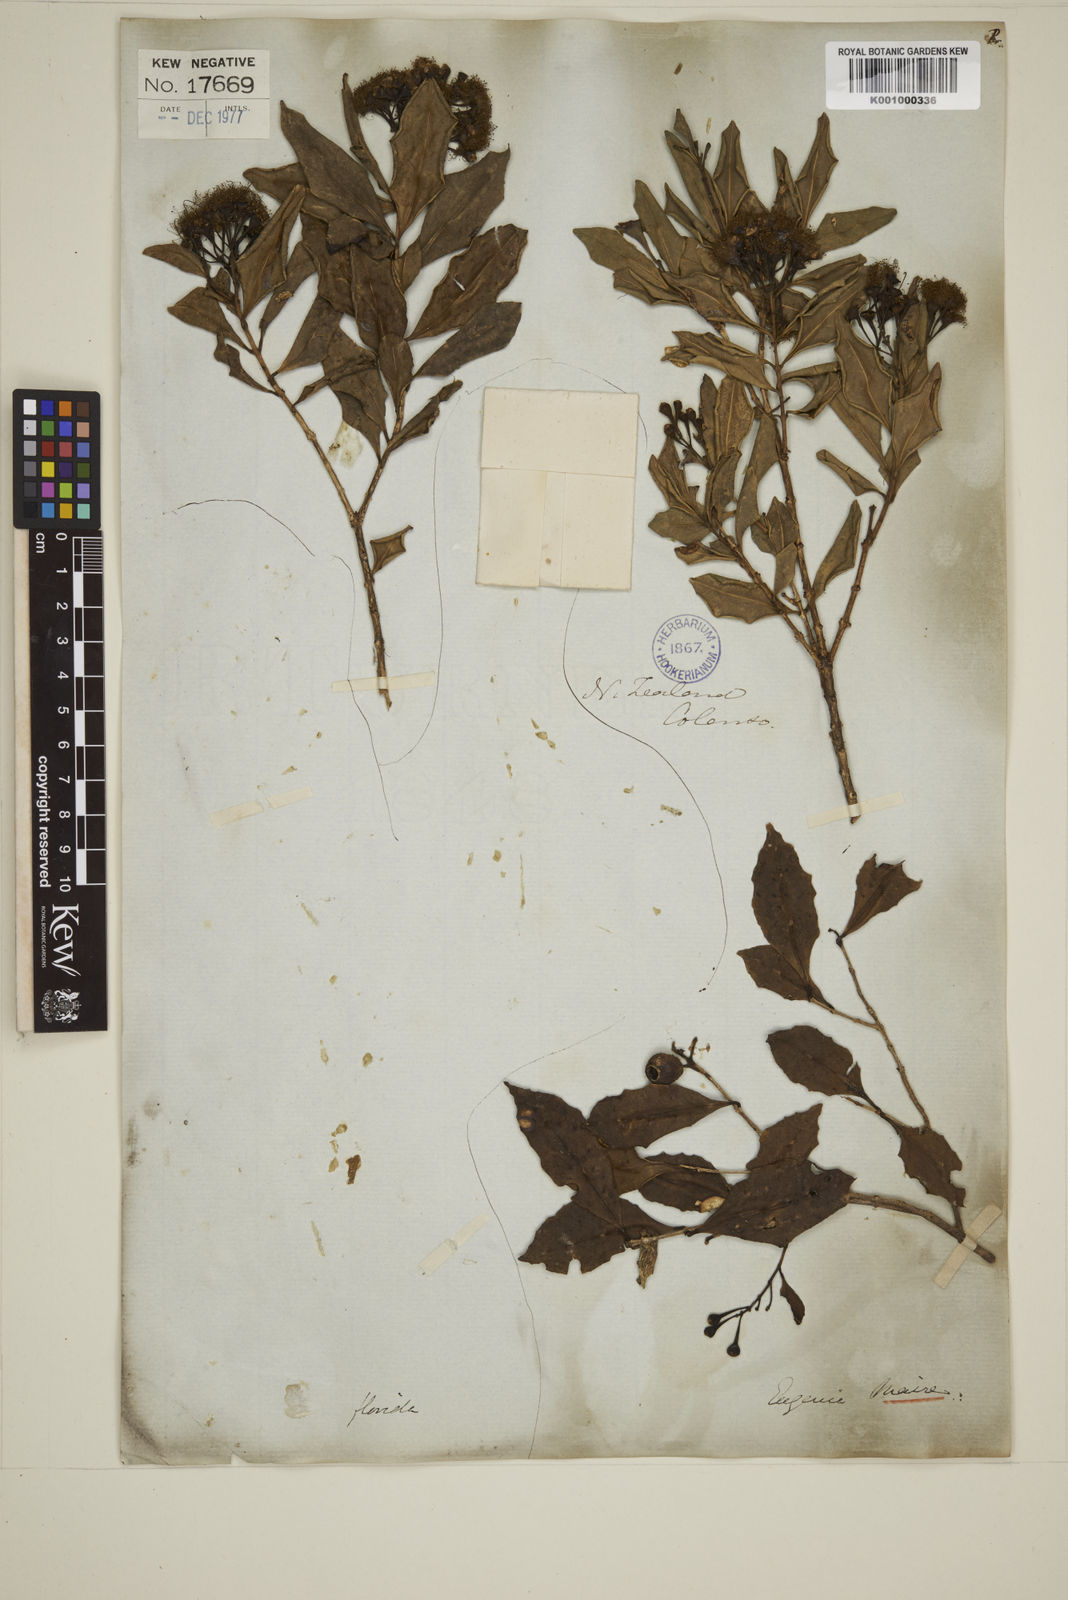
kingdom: Plantae
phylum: Tracheophyta
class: Magnoliopsida
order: Myrtales
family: Myrtaceae
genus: Syzygium
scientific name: Syzygium maire
